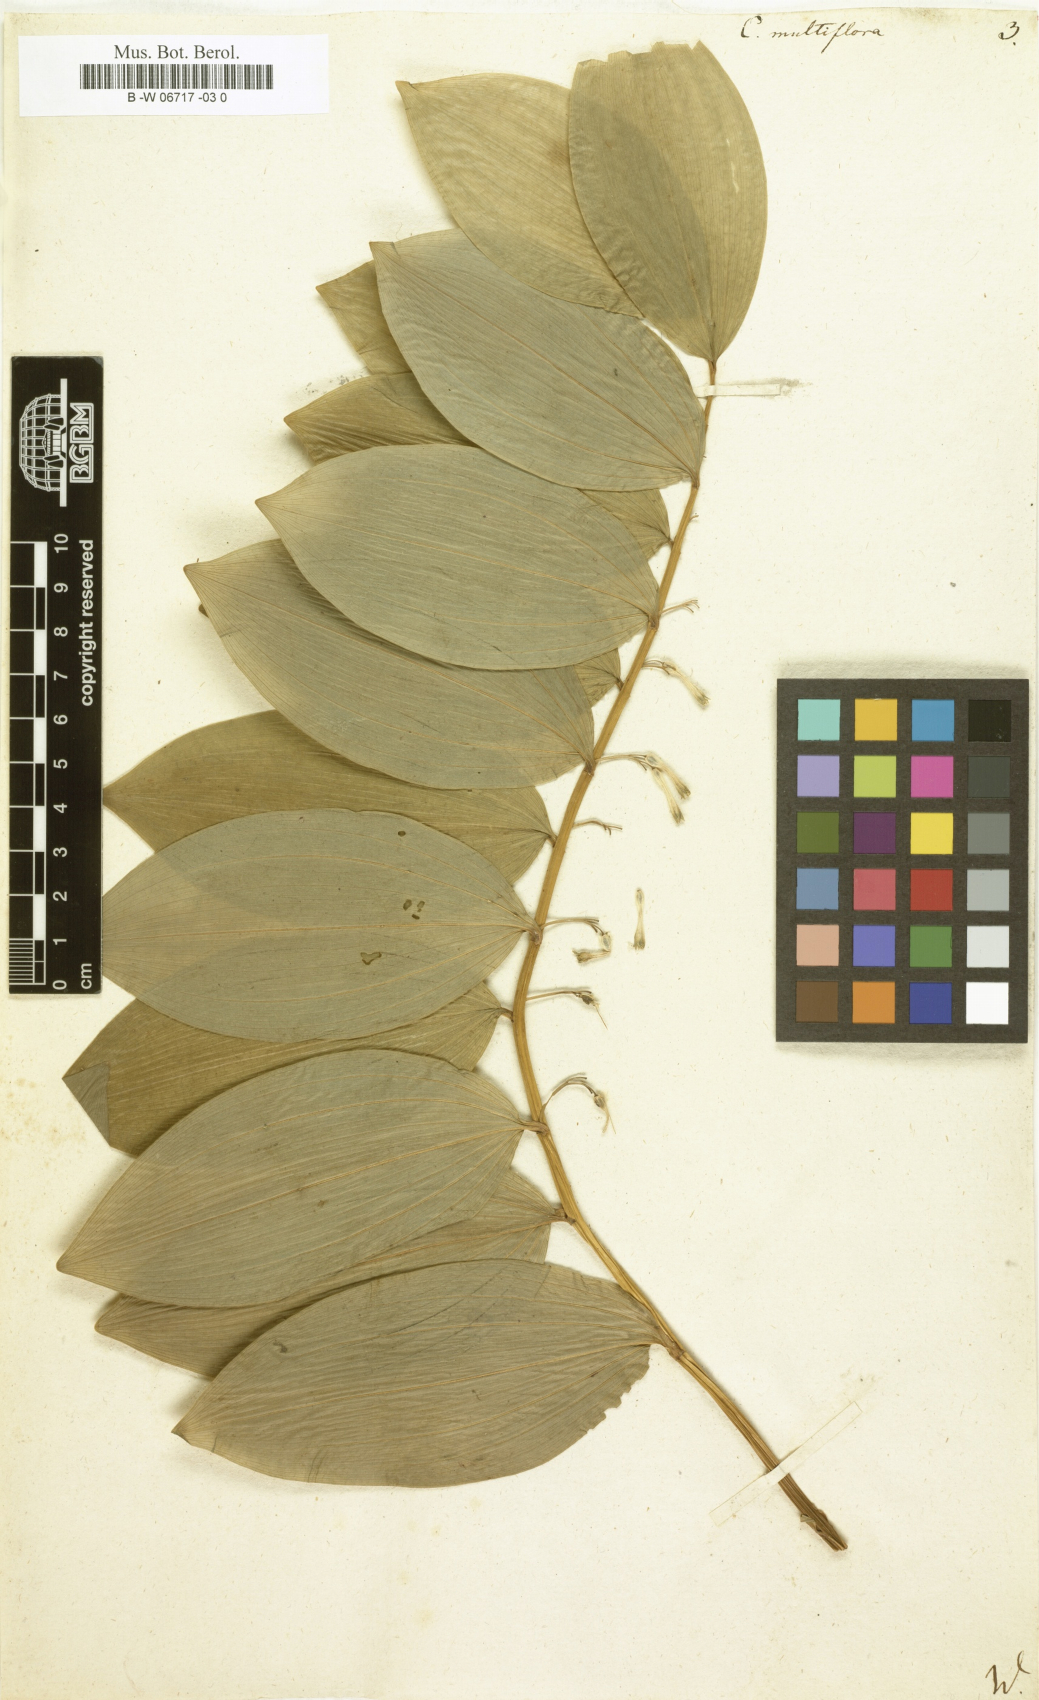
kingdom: Plantae
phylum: Tracheophyta
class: Liliopsida
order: Asparagales
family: Asparagaceae
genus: Polygonatum
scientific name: Polygonatum multiflorum
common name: Solomon's-seal
